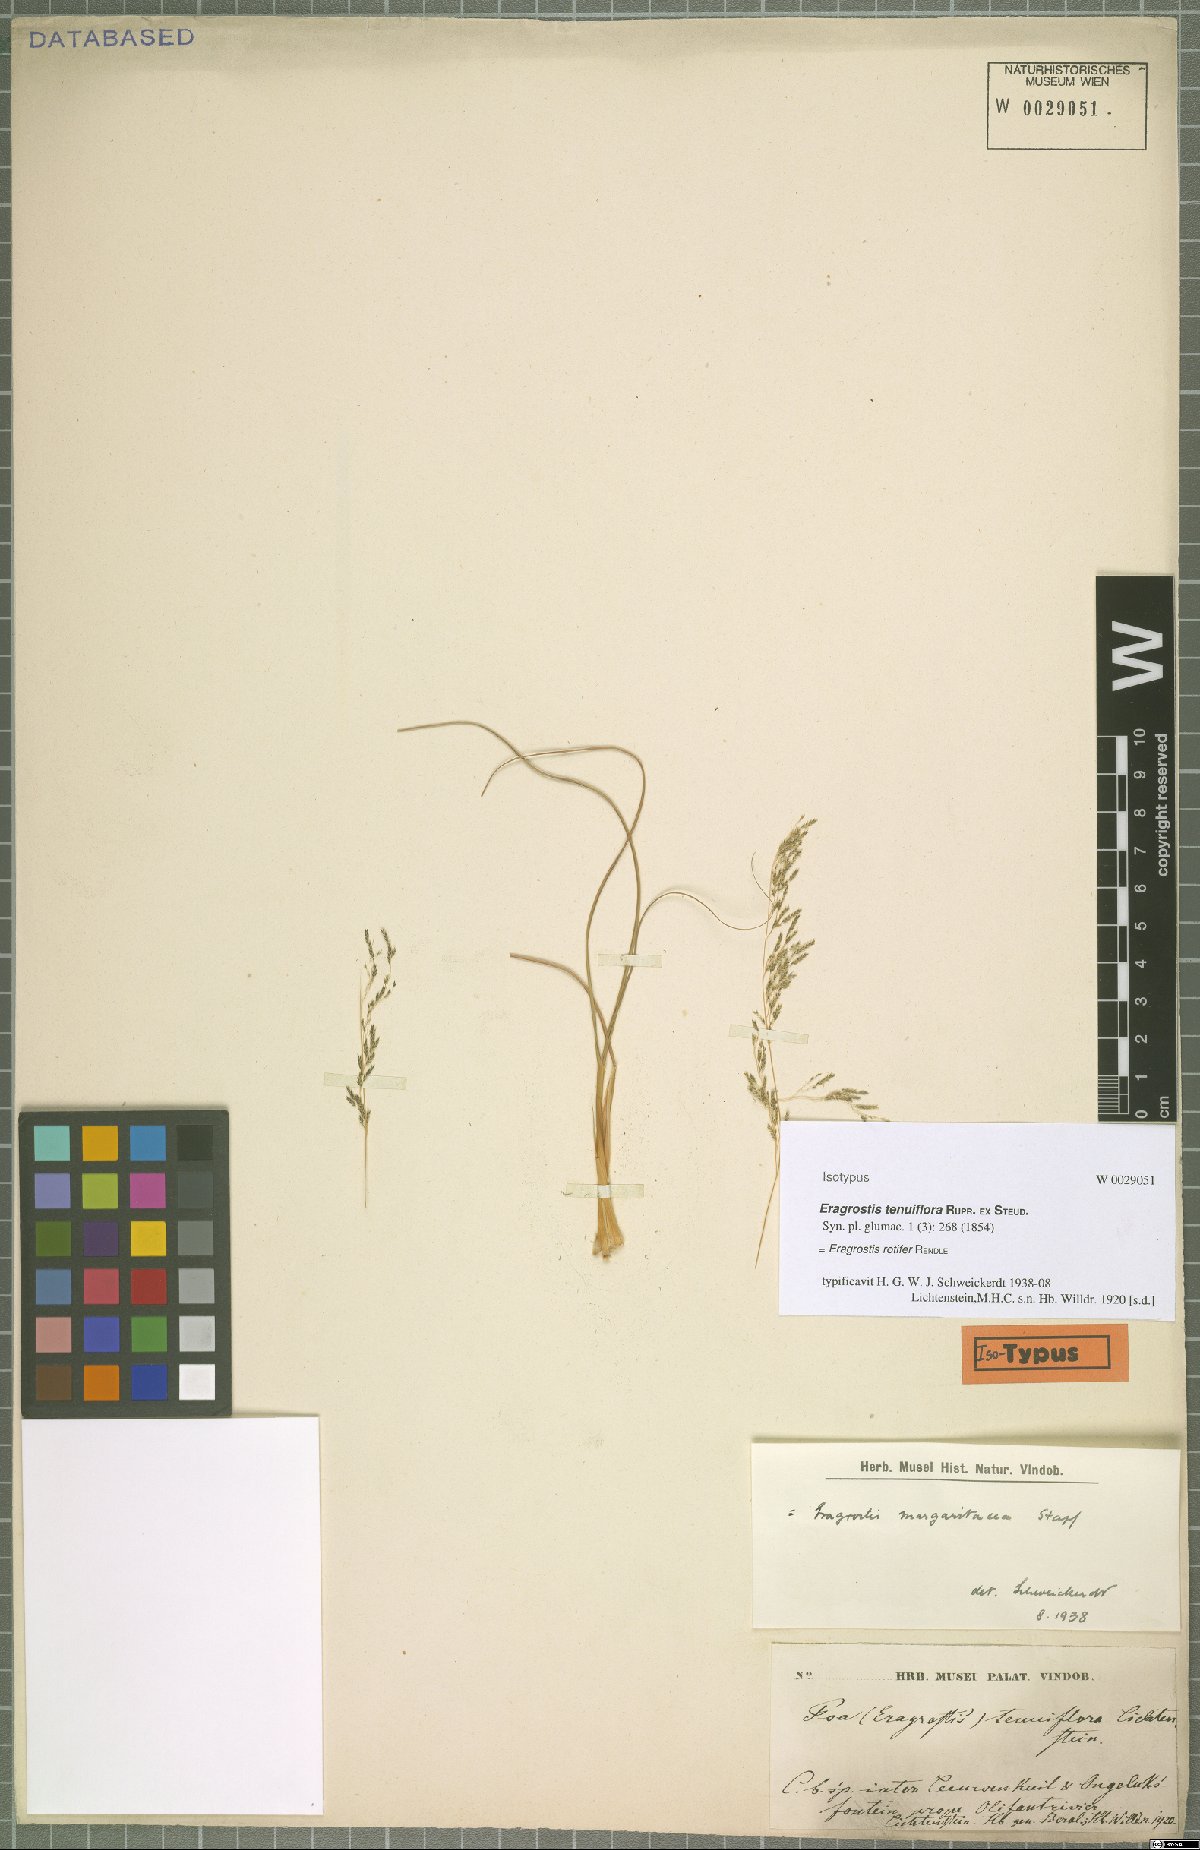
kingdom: Plantae
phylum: Tracheophyta
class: Liliopsida
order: Poales
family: Poaceae
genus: Eragrostis
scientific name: Eragrostis rotifer
